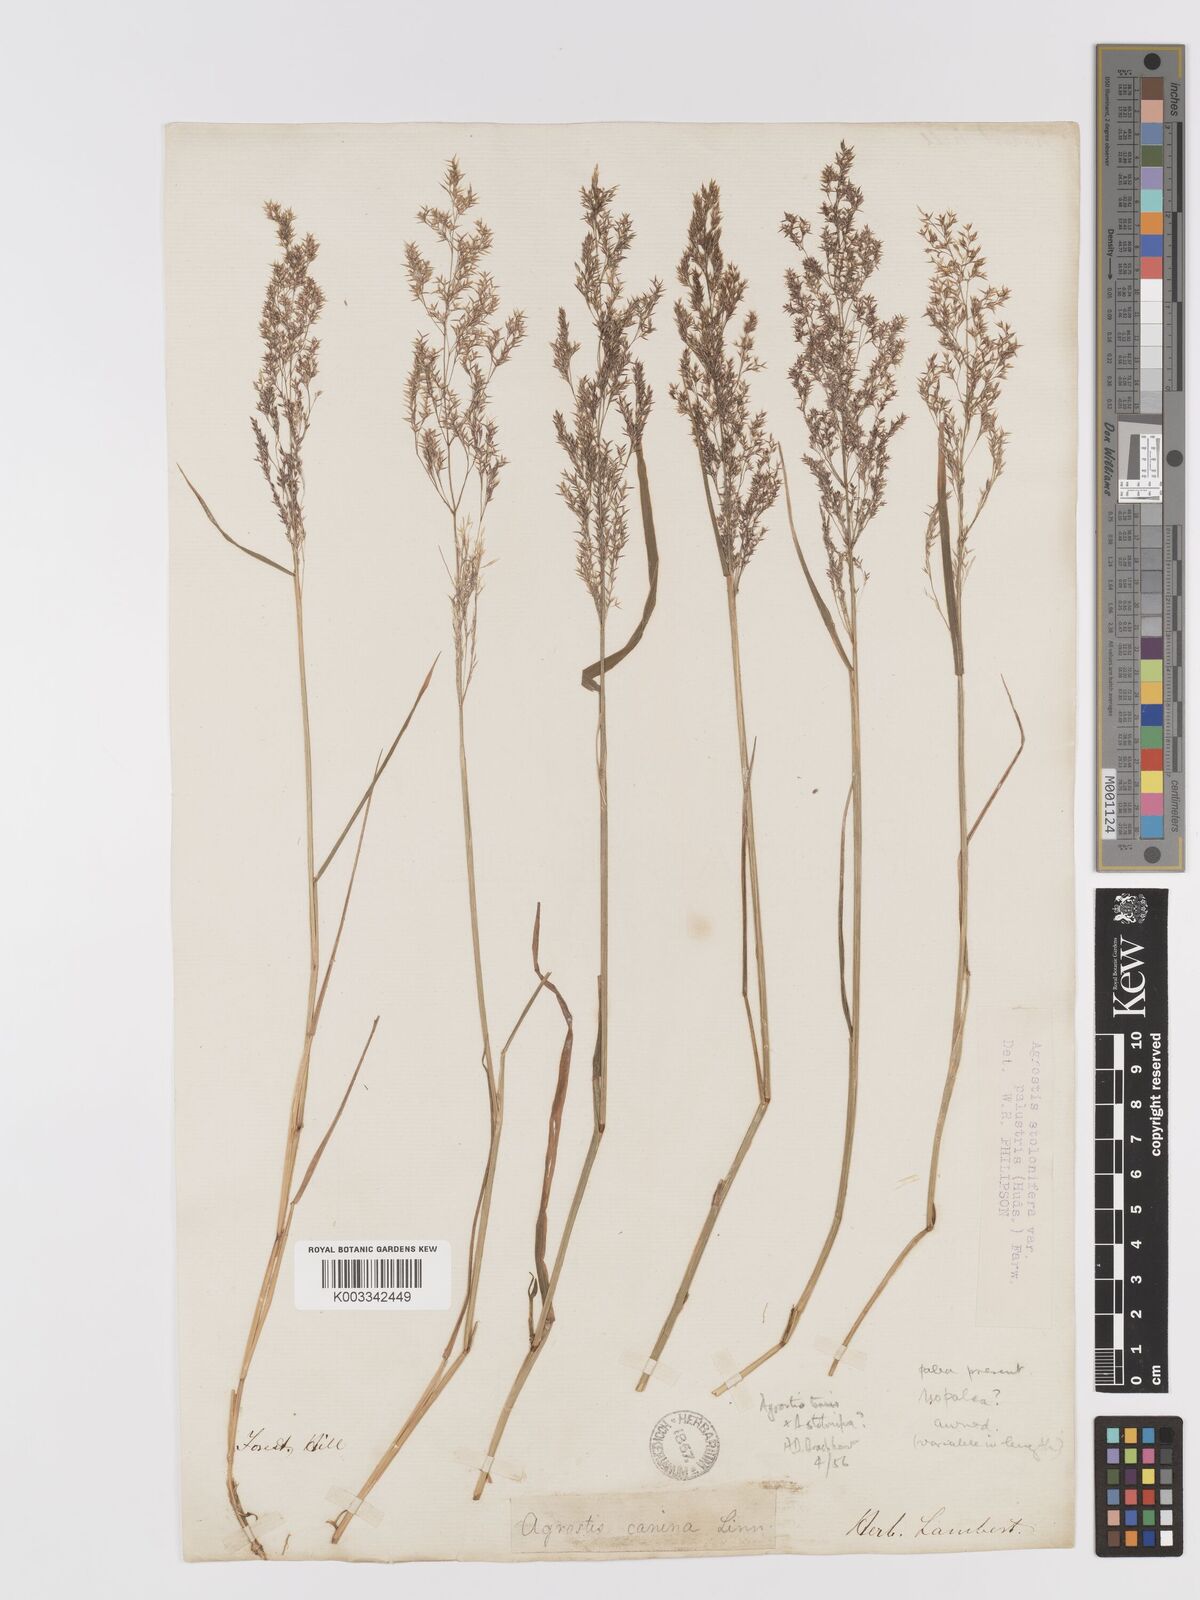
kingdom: Plantae
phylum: Tracheophyta
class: Liliopsida
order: Poales
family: Poaceae
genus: Agrostis
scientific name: Agrostis capillaris
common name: Colonial bentgrass
